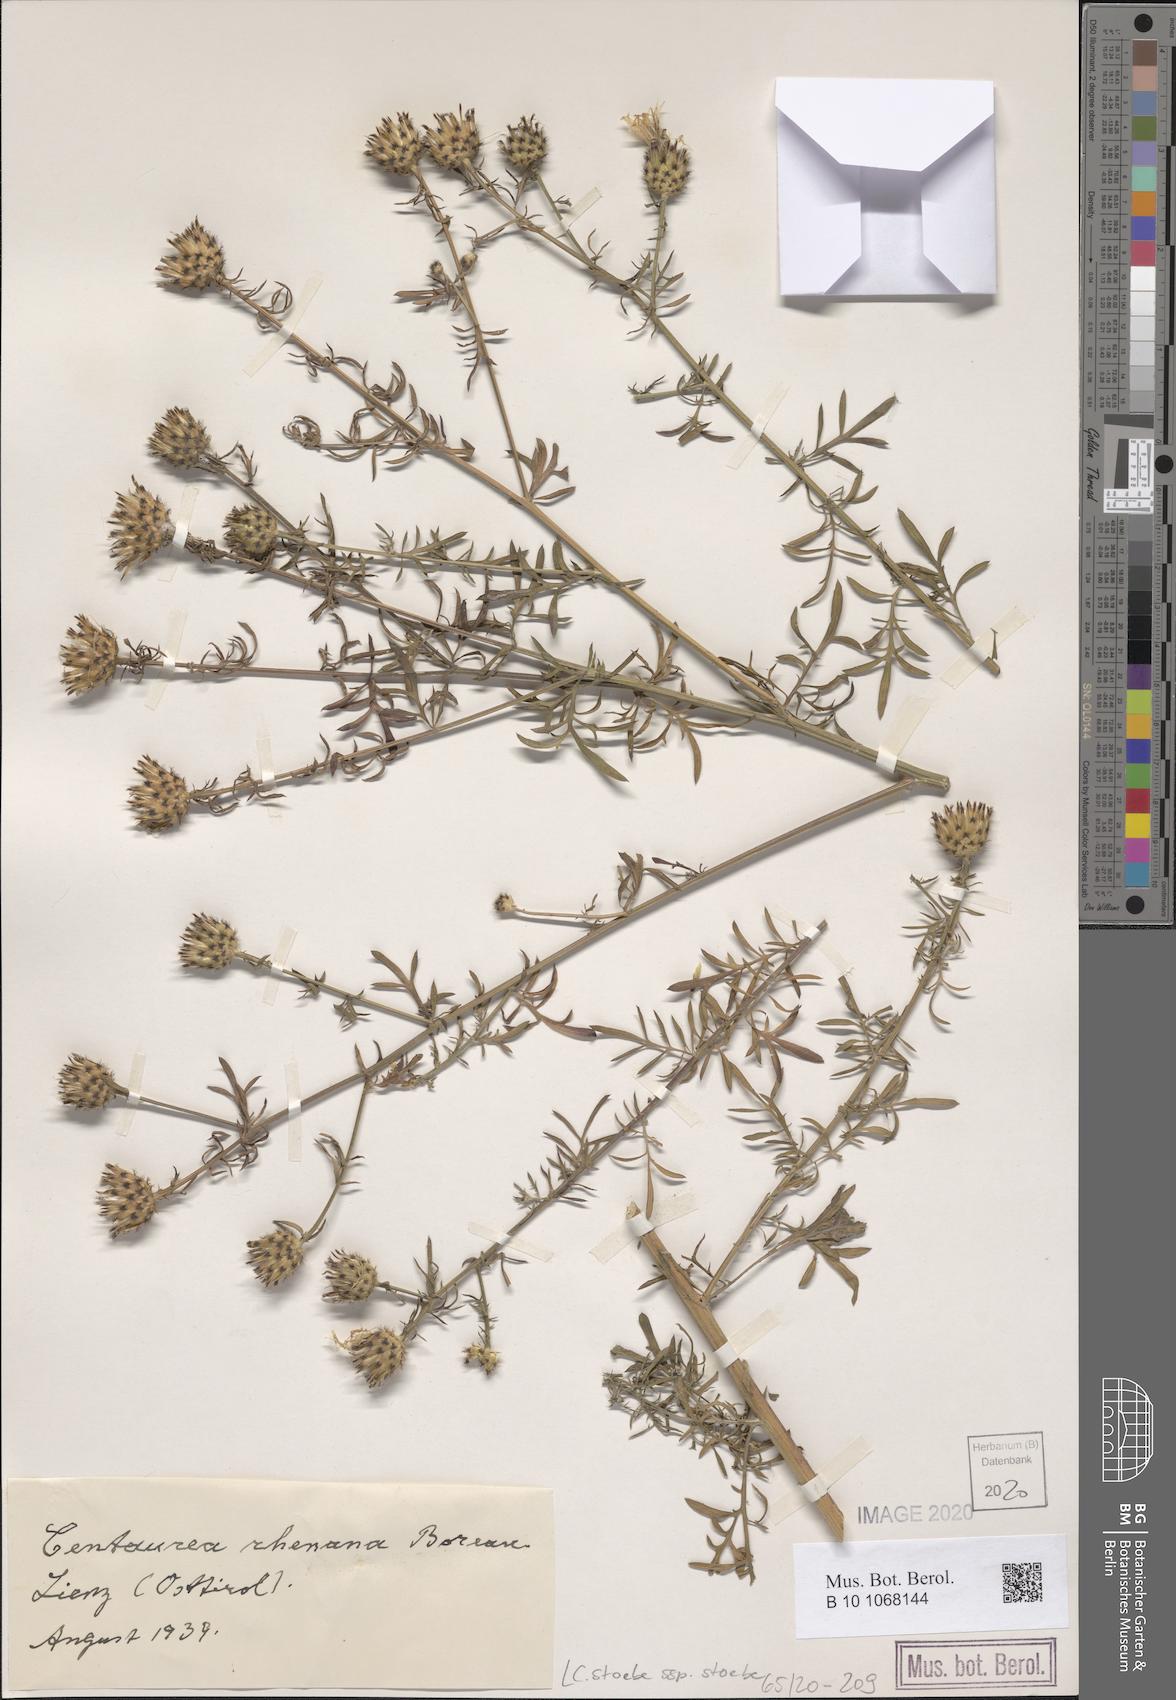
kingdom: Plantae
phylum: Tracheophyta
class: Magnoliopsida
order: Asterales
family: Asteraceae
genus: Centaurea
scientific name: Centaurea stoebe
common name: Spotted knapweed
